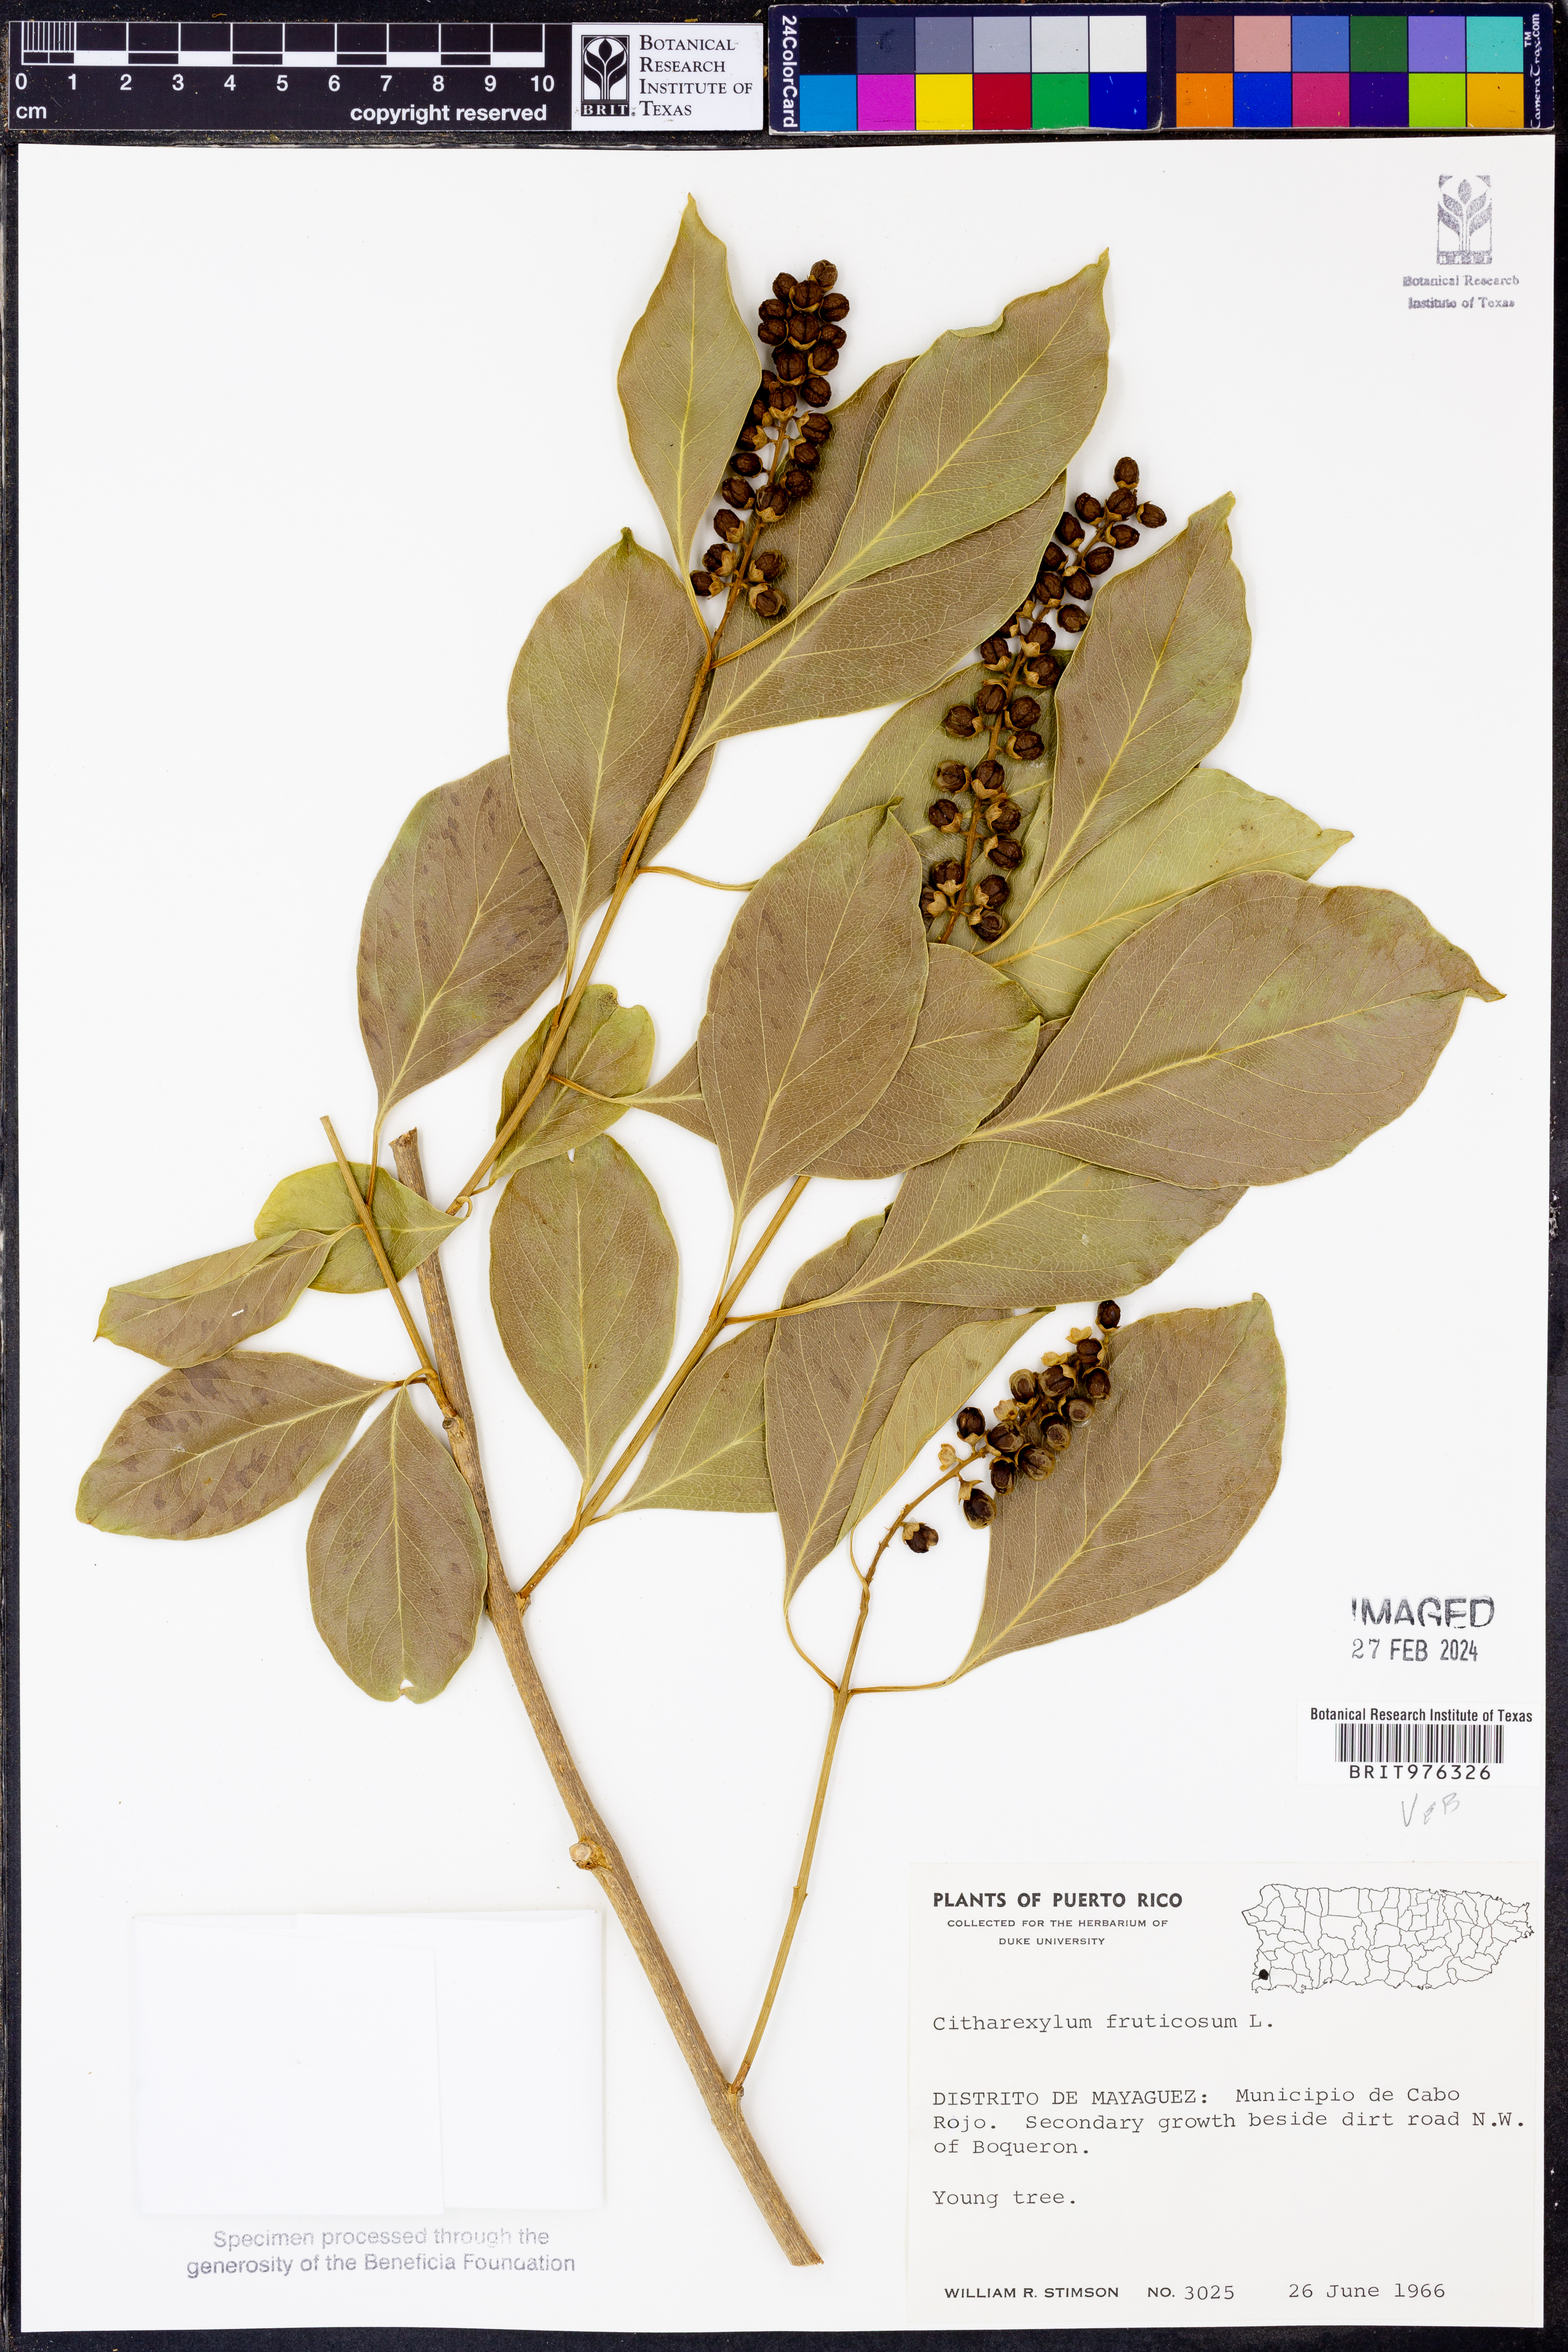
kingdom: Plantae
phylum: Tracheophyta
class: Magnoliopsida
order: Lamiales
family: Verbenaceae
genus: Citharexylum
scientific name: Citharexylum
